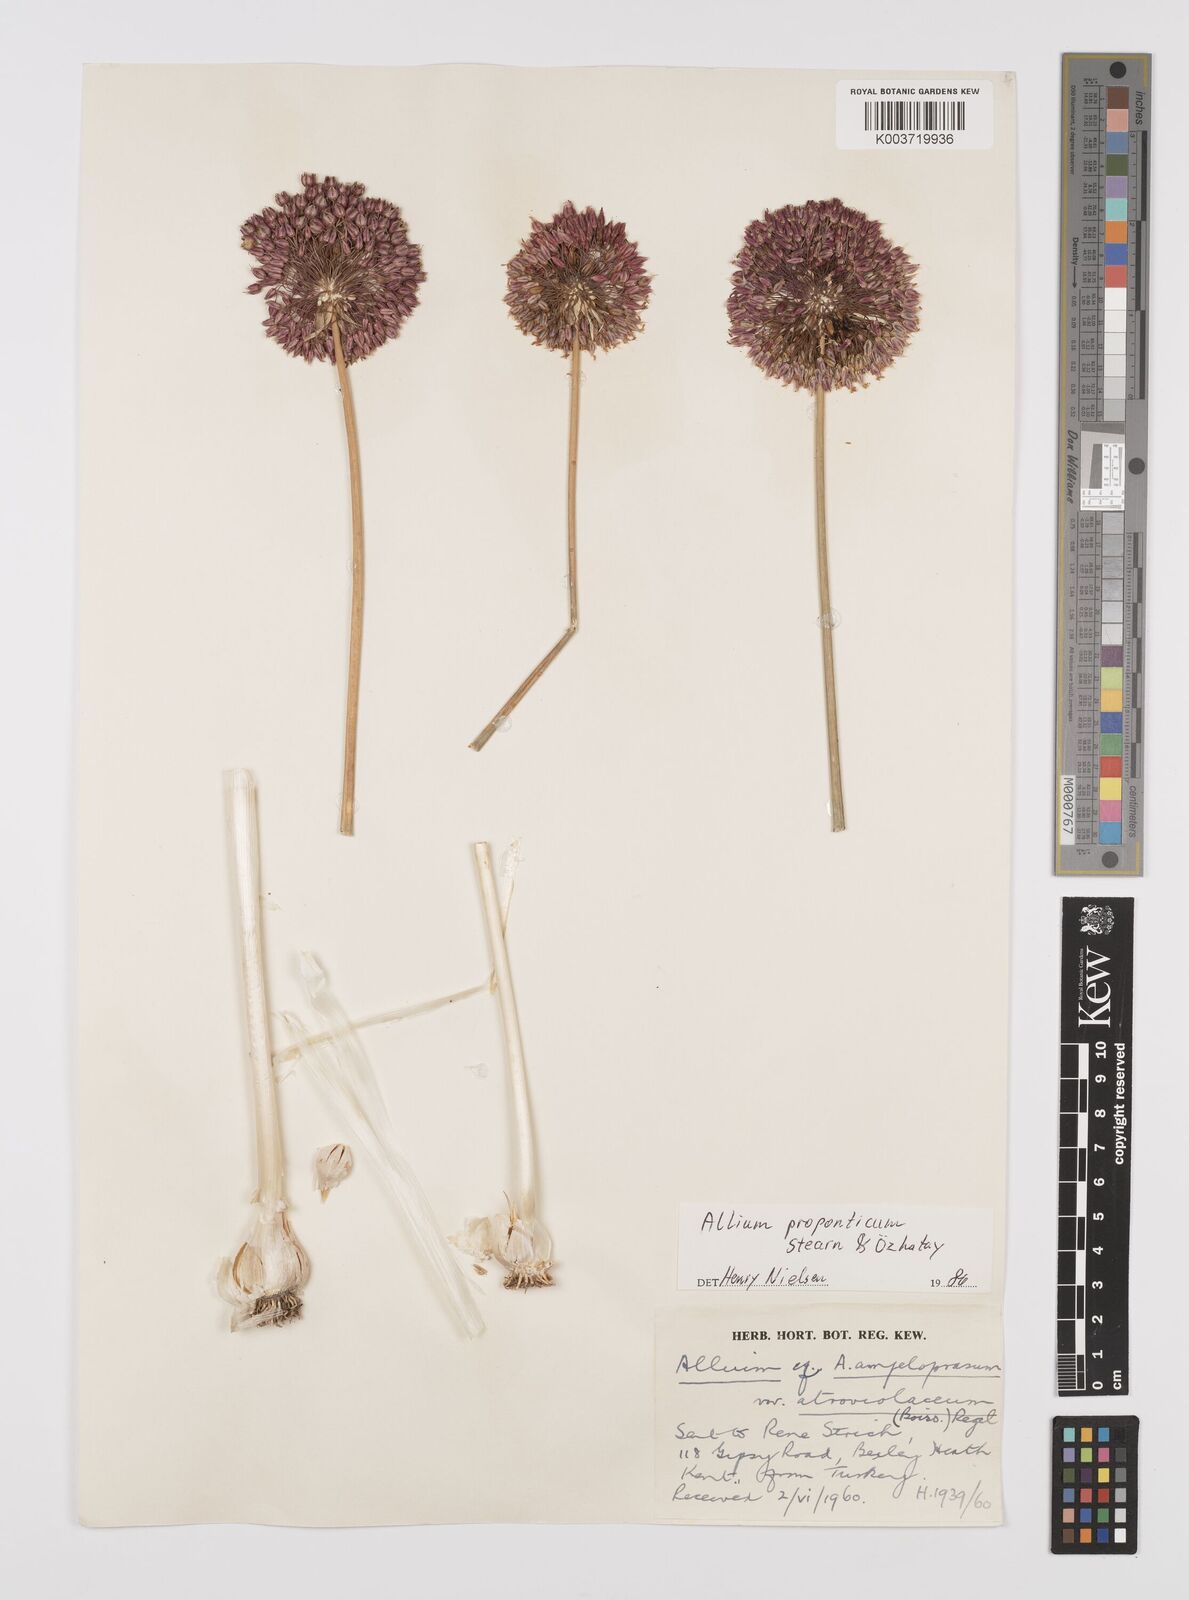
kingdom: Plantae
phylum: Tracheophyta
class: Liliopsida
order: Asparagales
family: Amaryllidaceae
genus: Allium
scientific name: Allium proponticum
